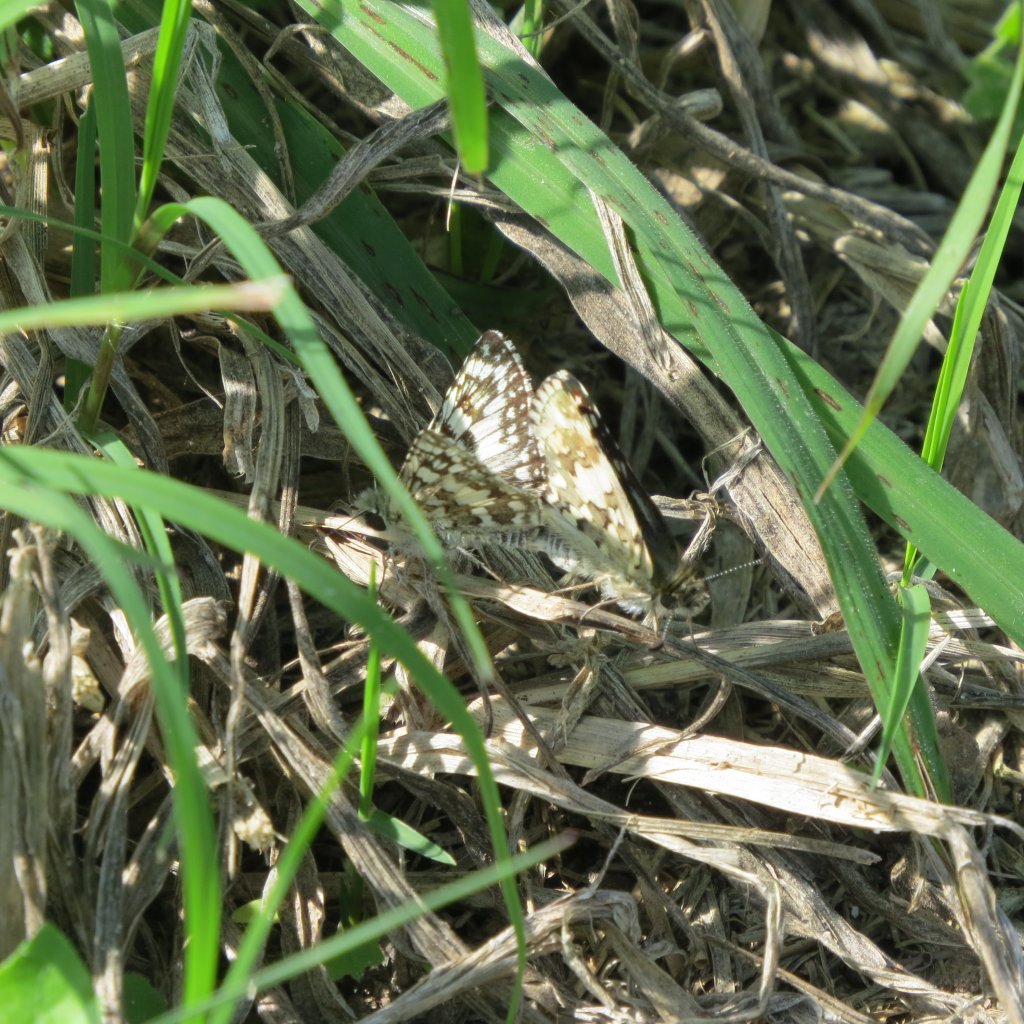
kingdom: Animalia
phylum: Arthropoda
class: Insecta
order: Lepidoptera
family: Hesperiidae
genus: Pyrgus
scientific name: Pyrgus communis
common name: White Checkered-Skipper
